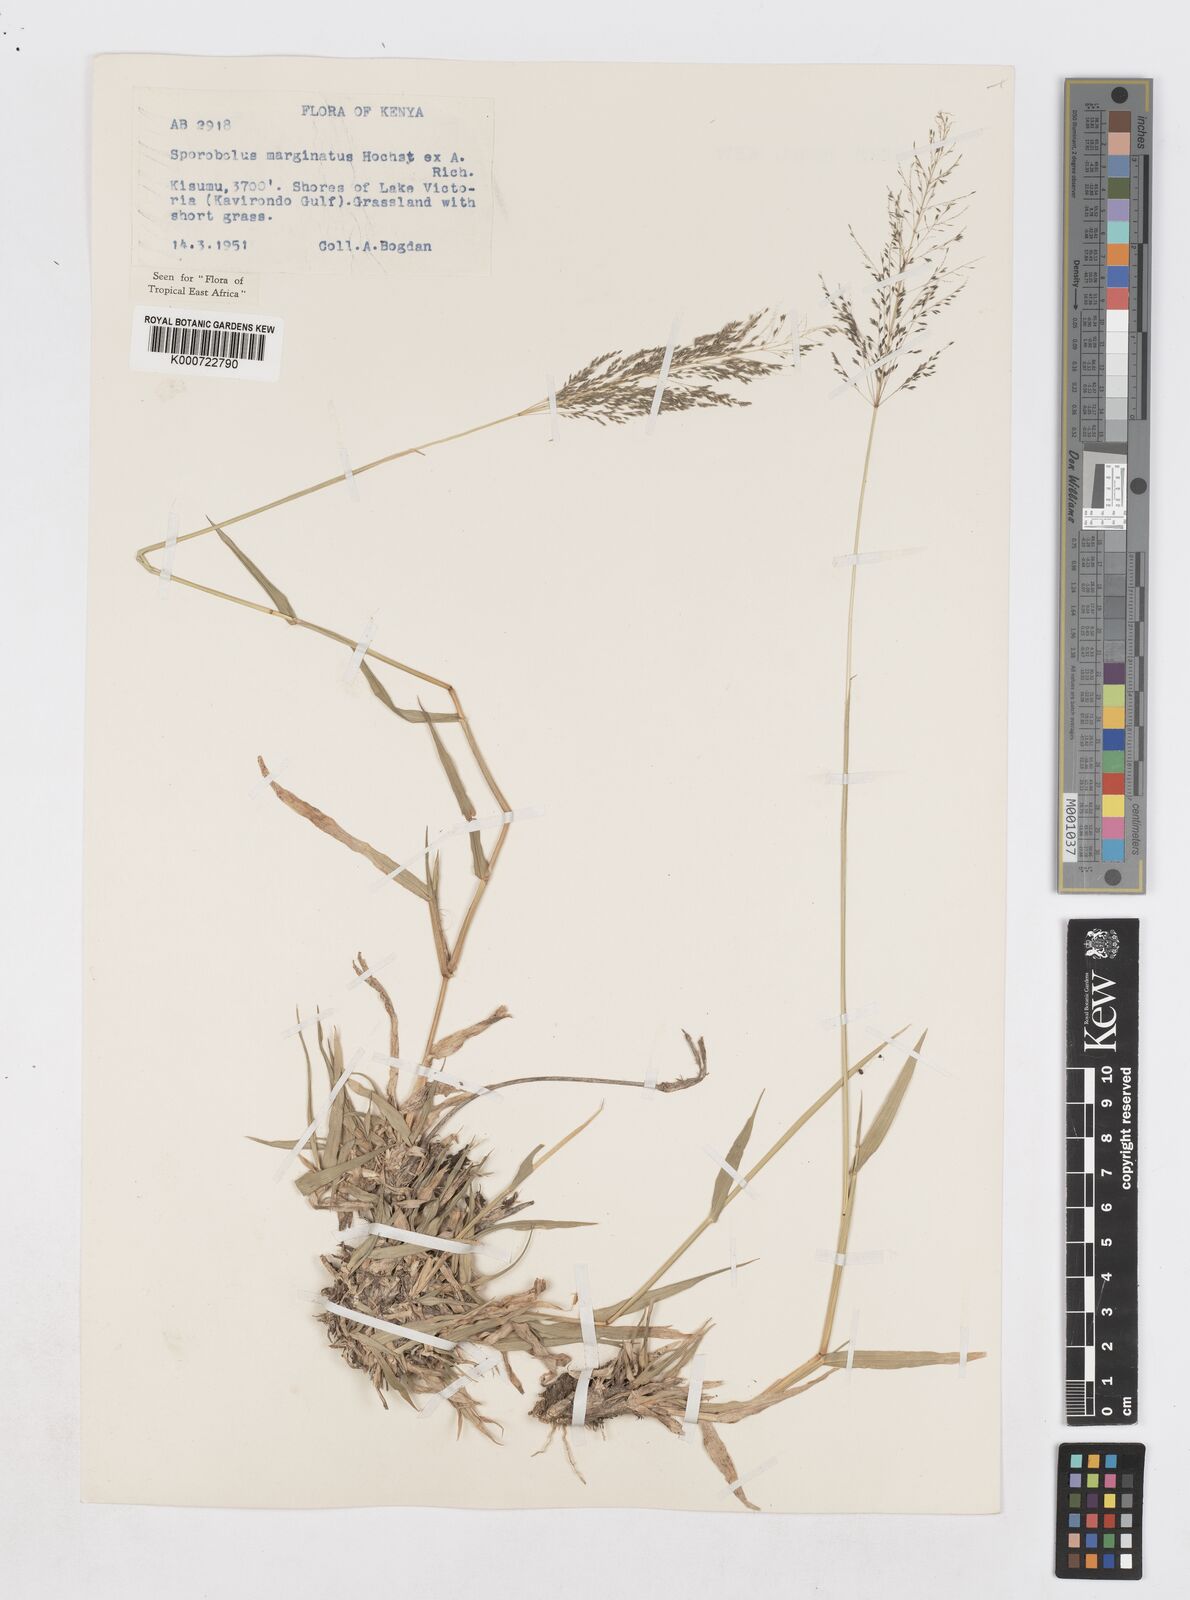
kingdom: Plantae
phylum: Tracheophyta
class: Liliopsida
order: Poales
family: Poaceae
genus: Sporobolus
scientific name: Sporobolus ioclados
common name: Pan dropseed
